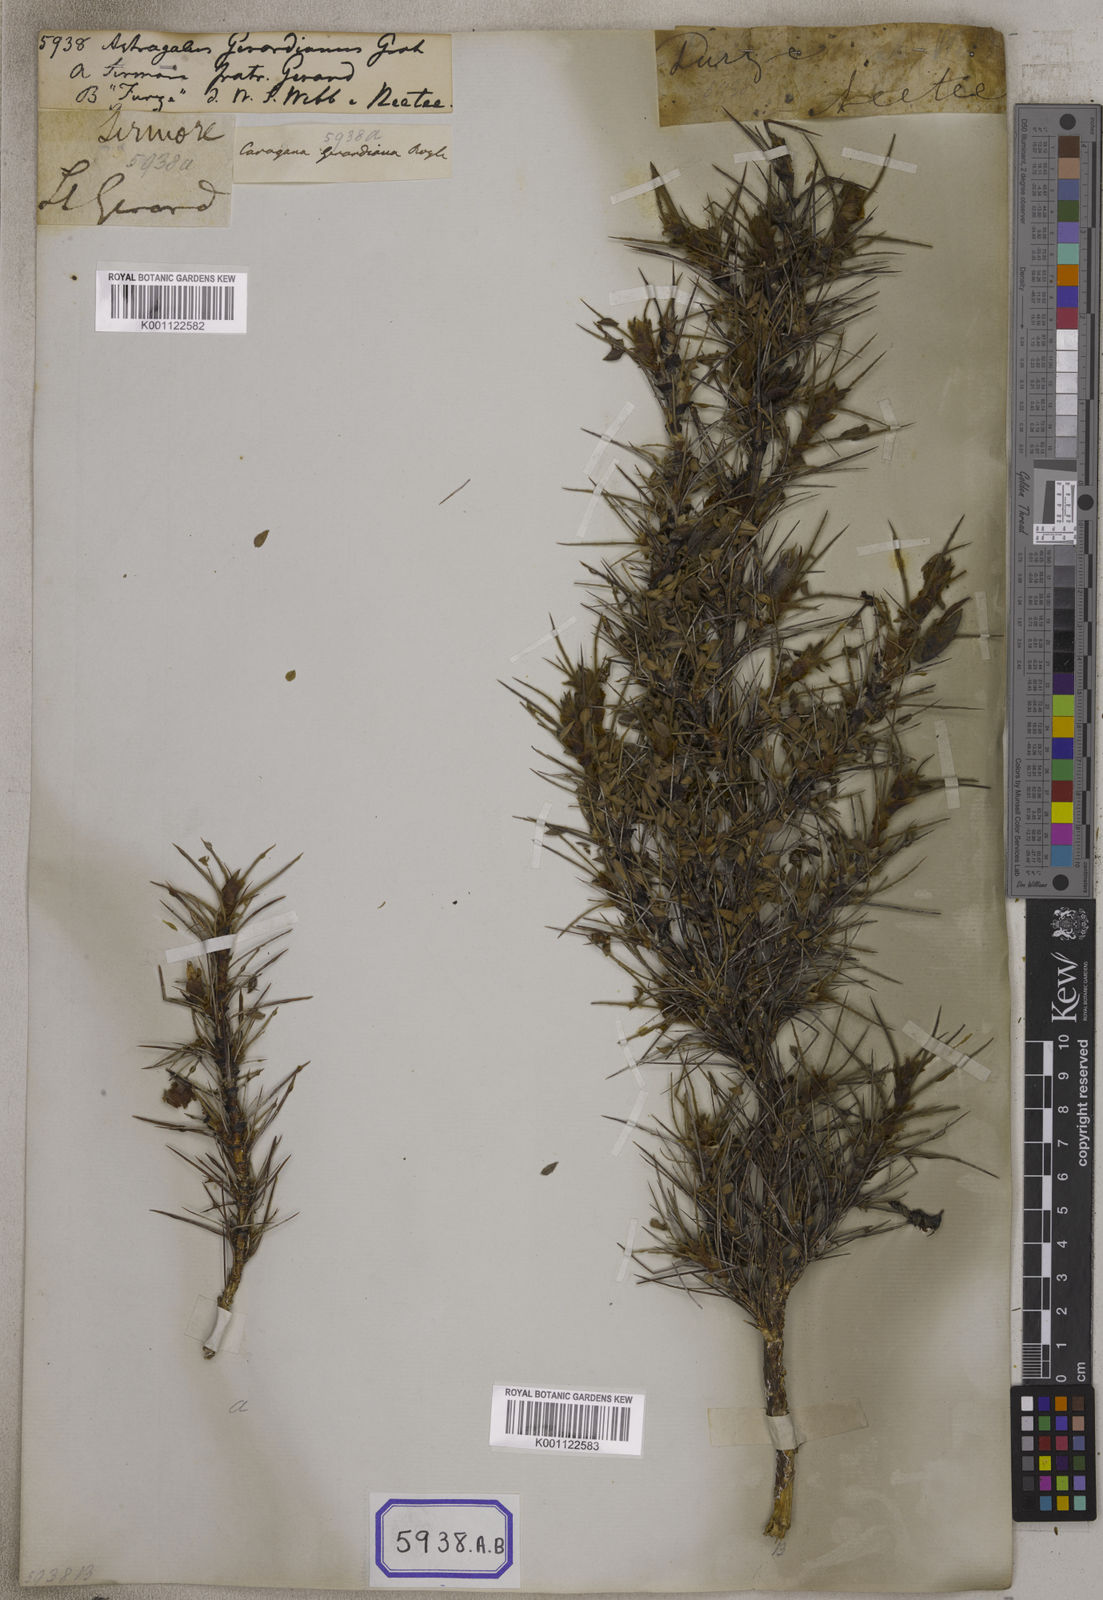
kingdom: Plantae
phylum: Tracheophyta
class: Magnoliopsida
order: Fabales
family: Fabaceae
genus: Astragalus
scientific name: Astragalus
